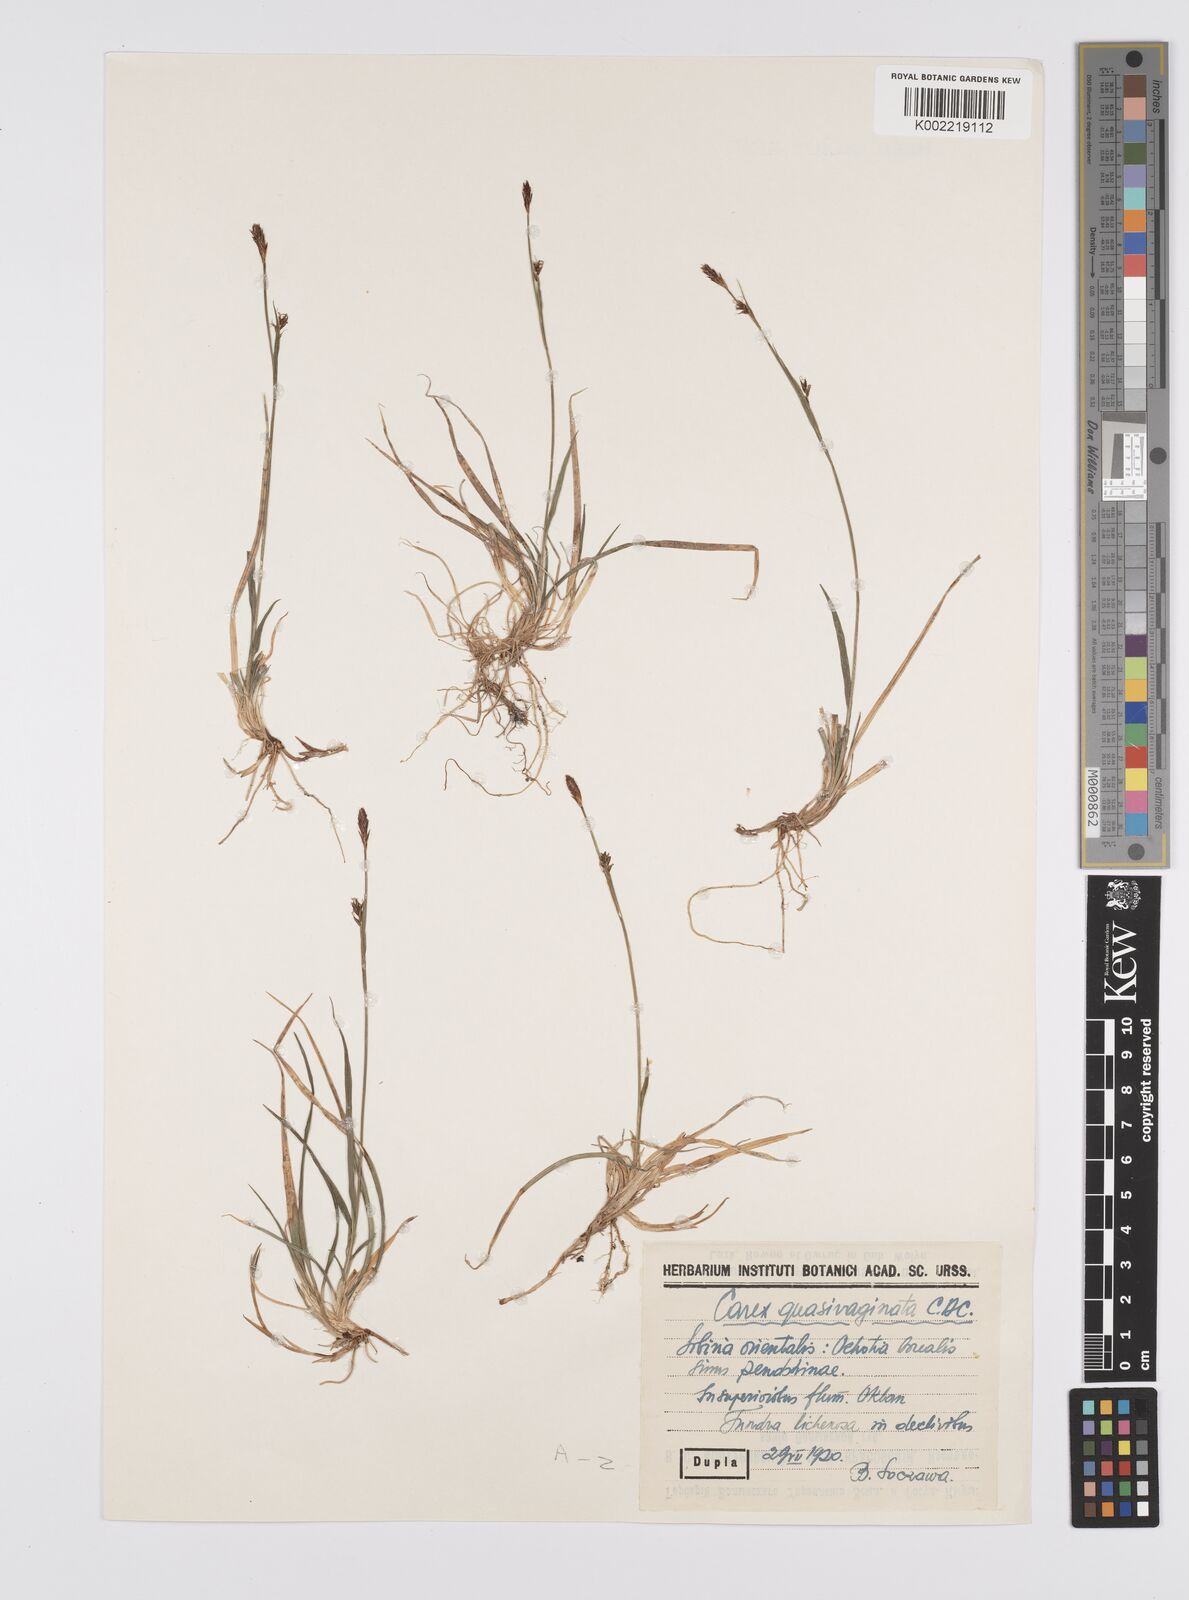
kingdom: Plantae
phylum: Tracheophyta
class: Liliopsida
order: Poales
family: Cyperaceae
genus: Carex
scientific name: Carex vaginata
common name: Sheathed sedge
